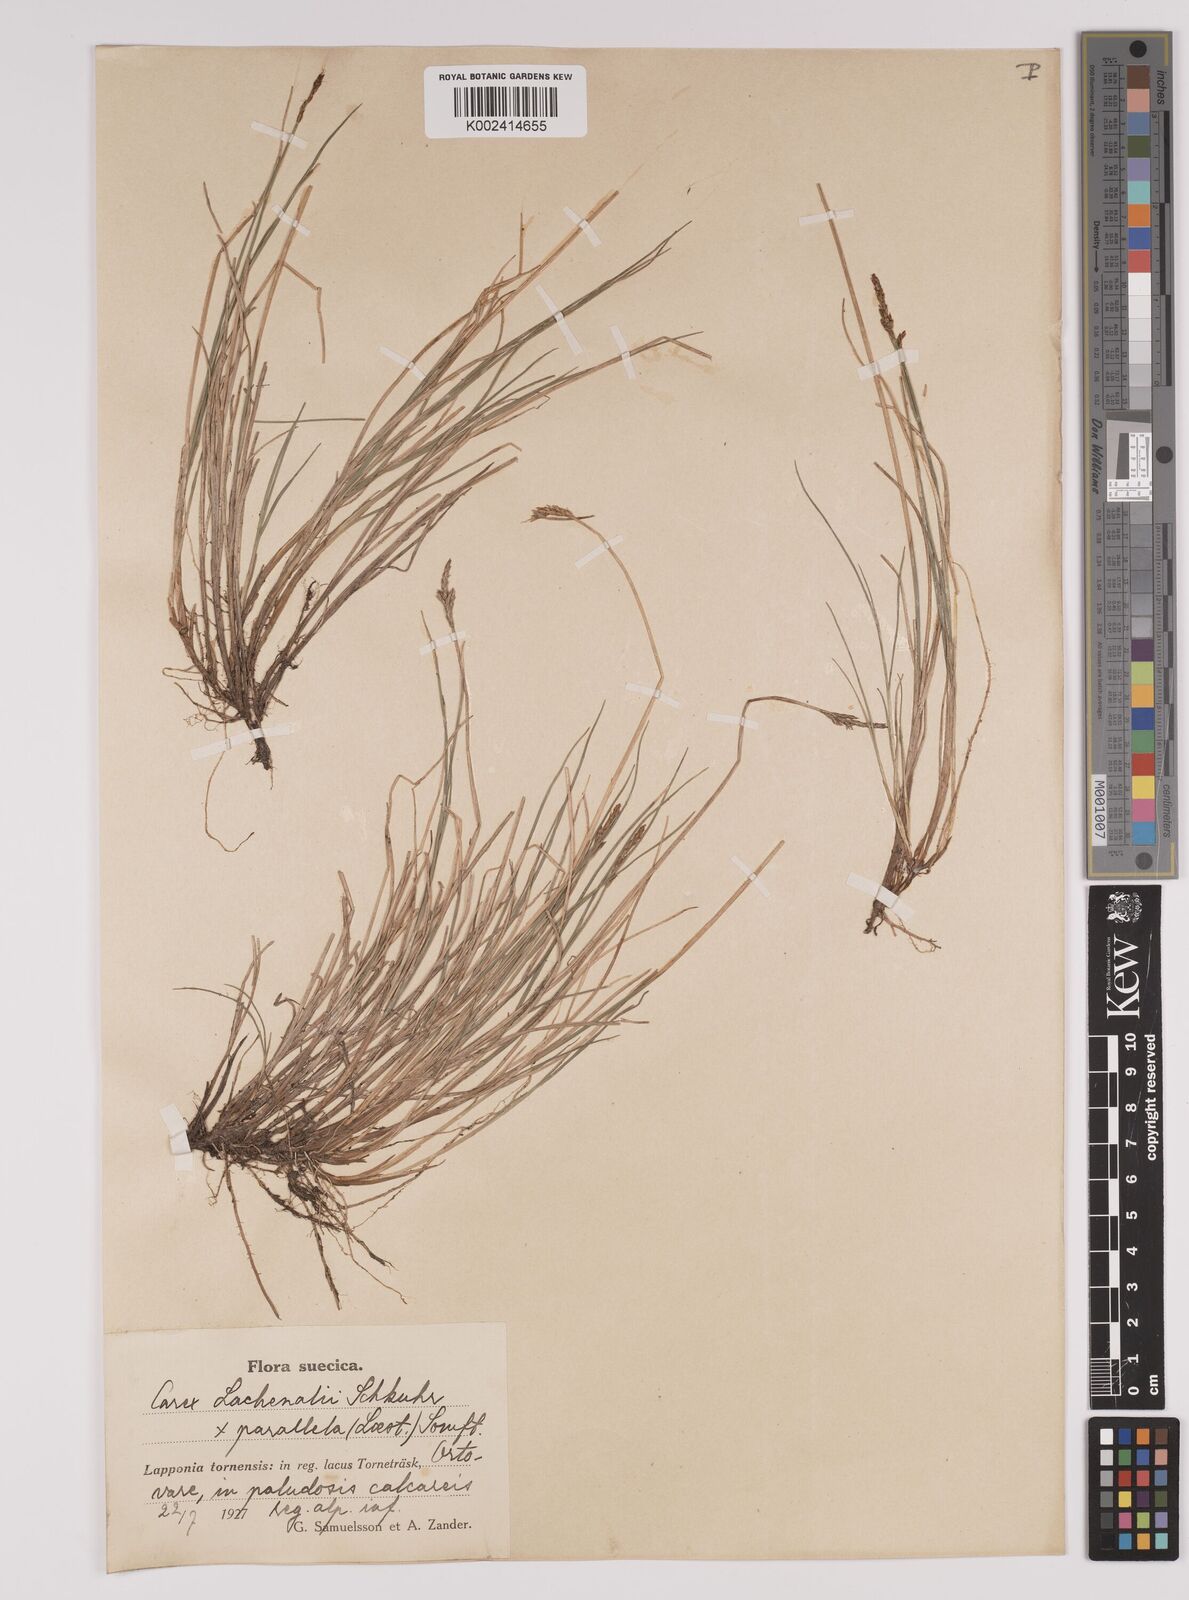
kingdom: Plantae
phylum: Tracheophyta
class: Liliopsida
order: Poales
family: Cyperaceae
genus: Carex
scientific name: Carex parallela
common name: Parallel sedge
